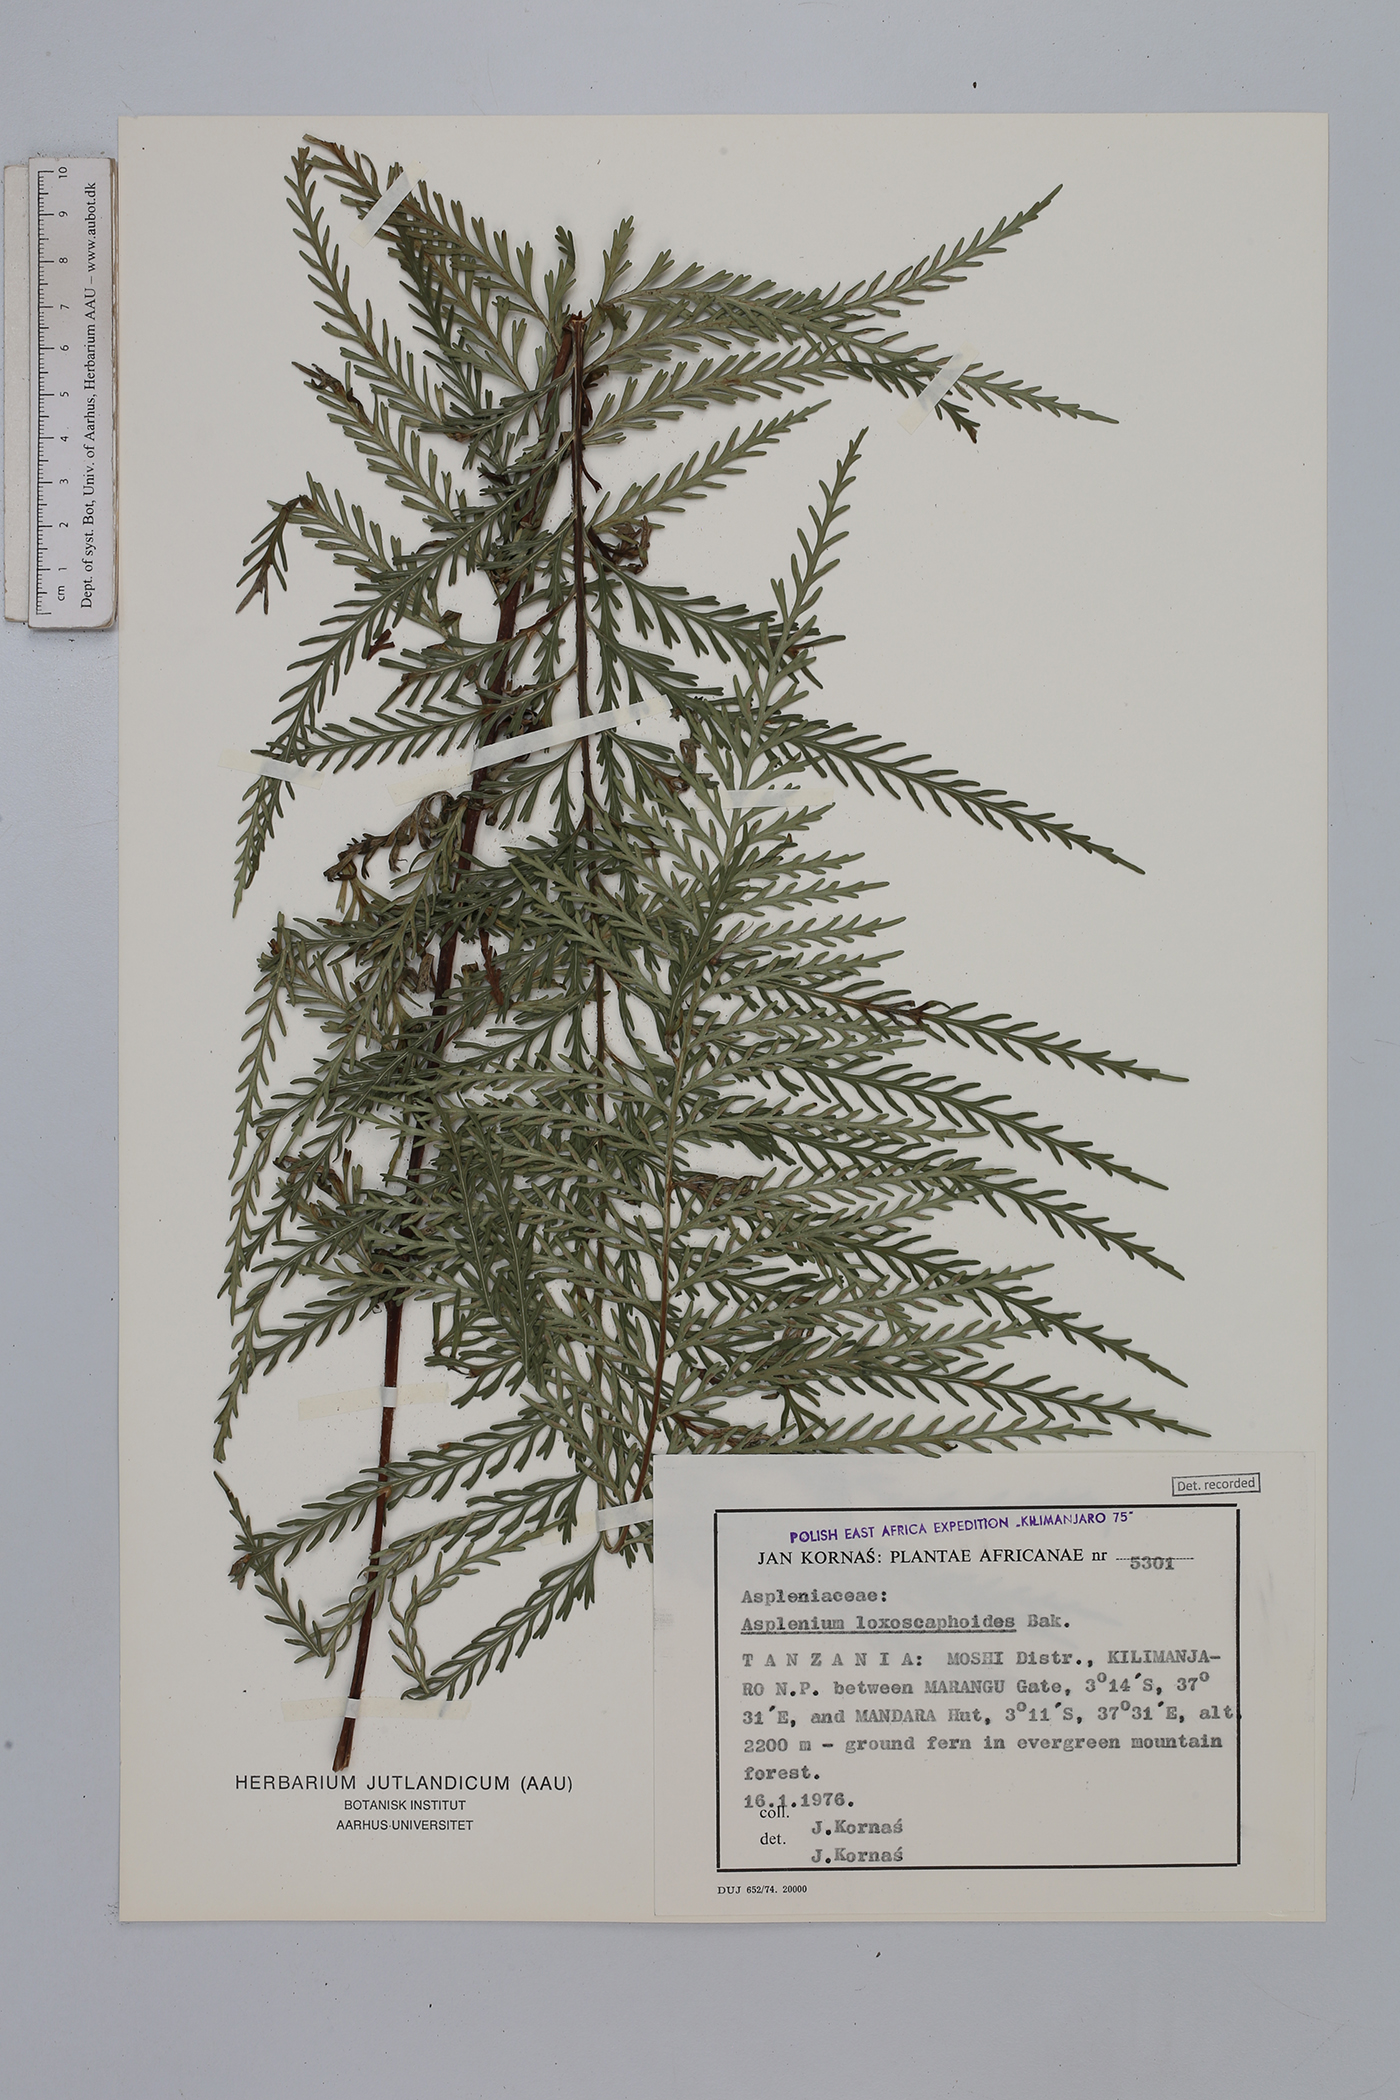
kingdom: Plantae
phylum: Tracheophyta
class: Polypodiopsida
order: Polypodiales
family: Aspleniaceae
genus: Asplenium
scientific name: Asplenium loxoscaphoides
